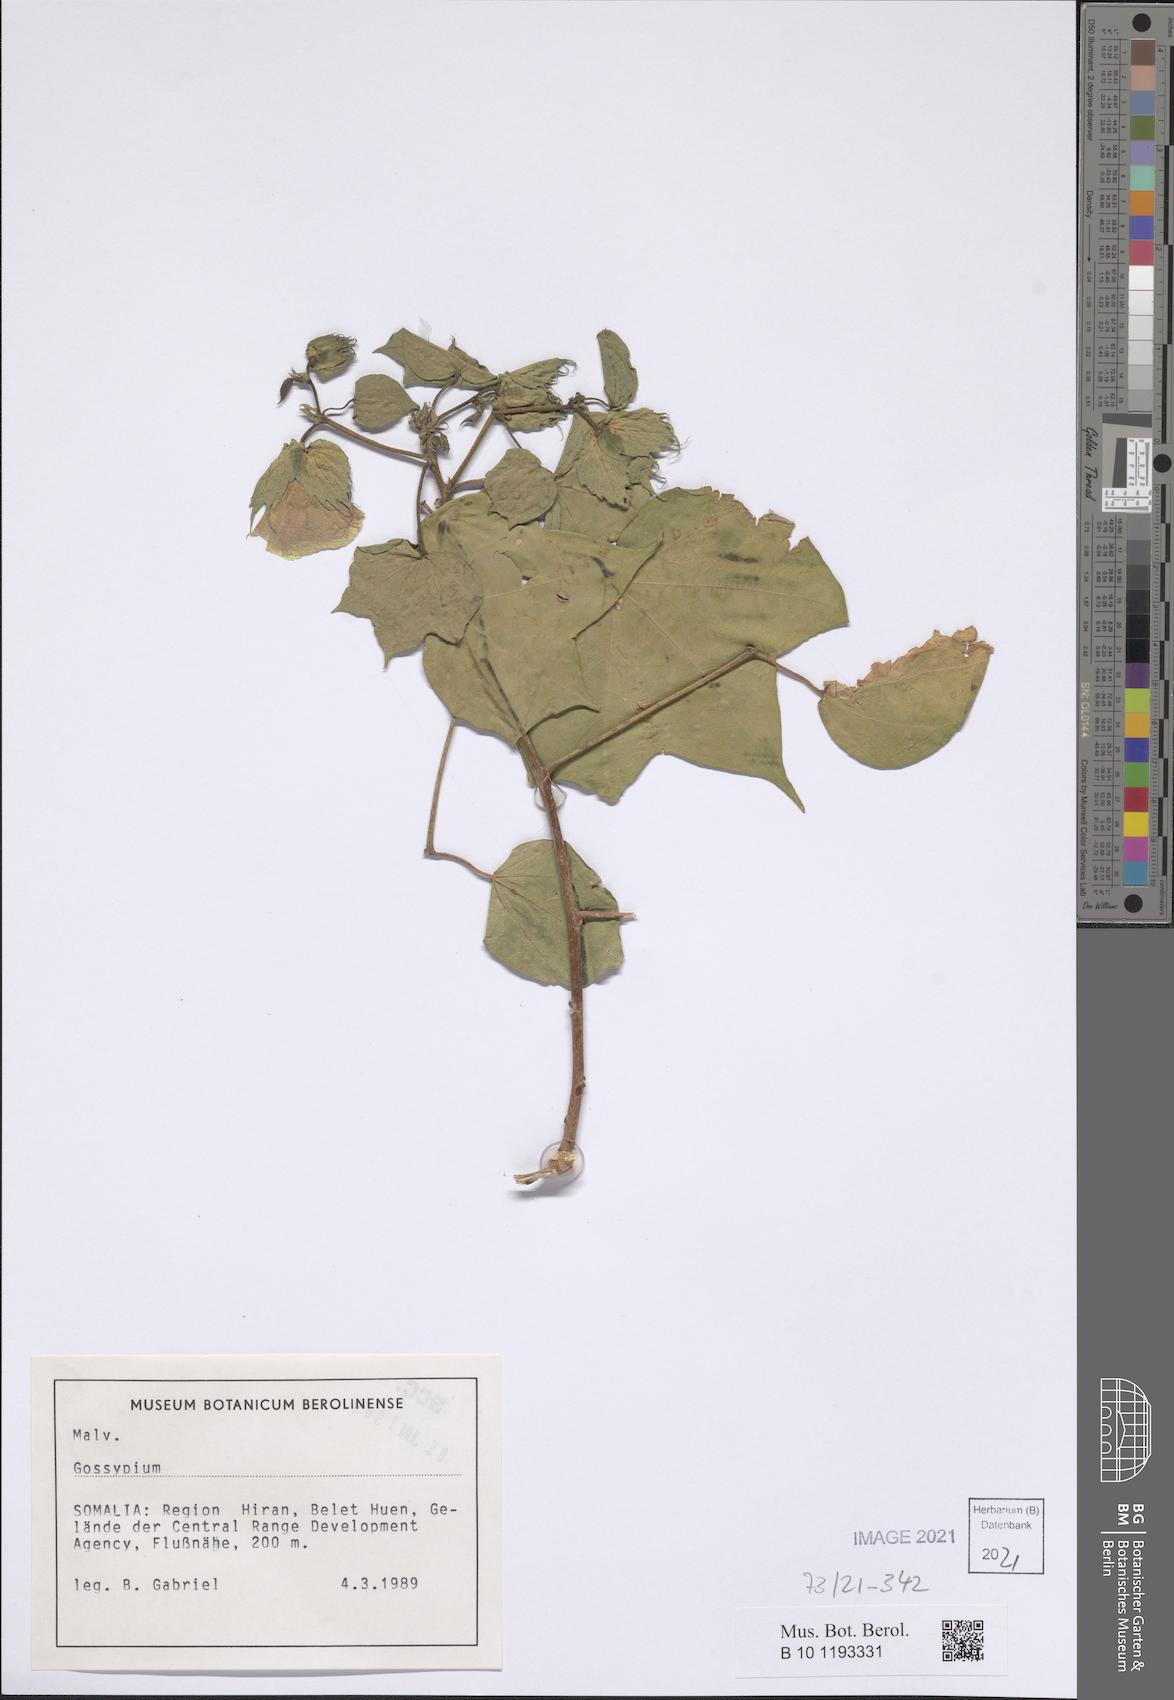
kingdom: Plantae
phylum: Tracheophyta
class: Magnoliopsida
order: Malvales
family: Malvaceae
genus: Gossypium
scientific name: Gossypium
